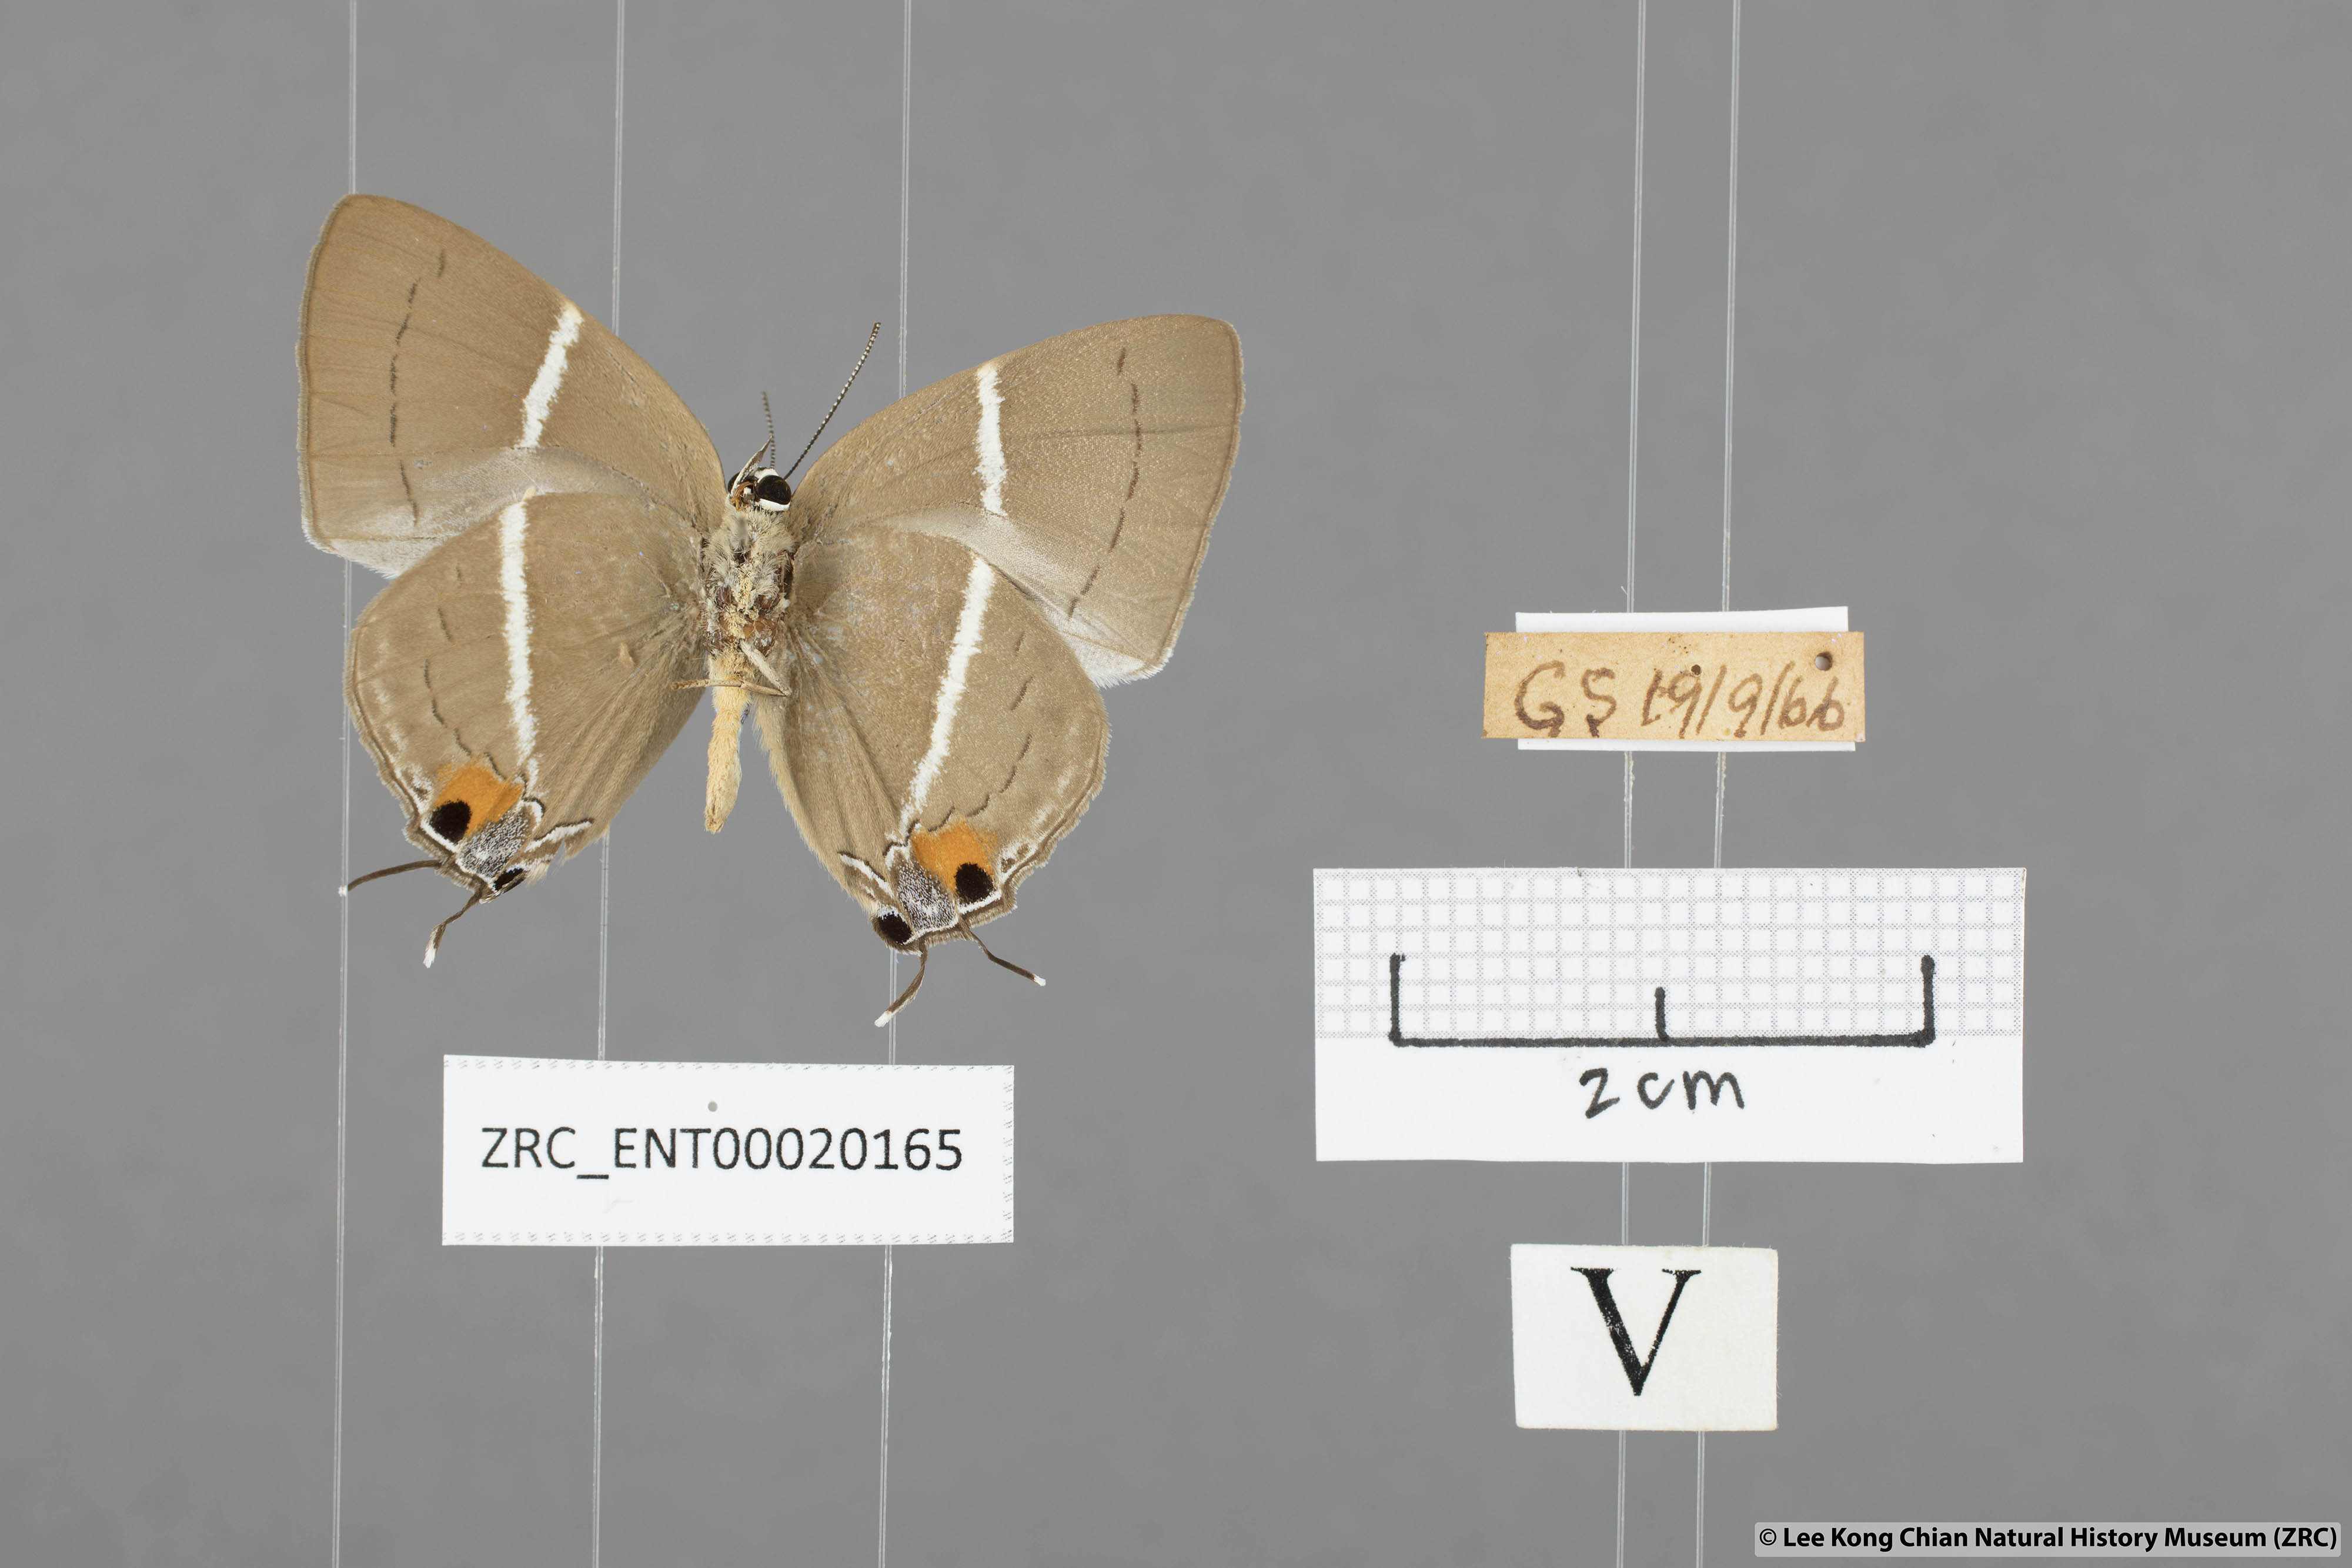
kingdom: Animalia
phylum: Arthropoda
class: Insecta
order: Lepidoptera
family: Lycaenidae
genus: Dacalana
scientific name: Dacalana vidura
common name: Medium-branded royal
